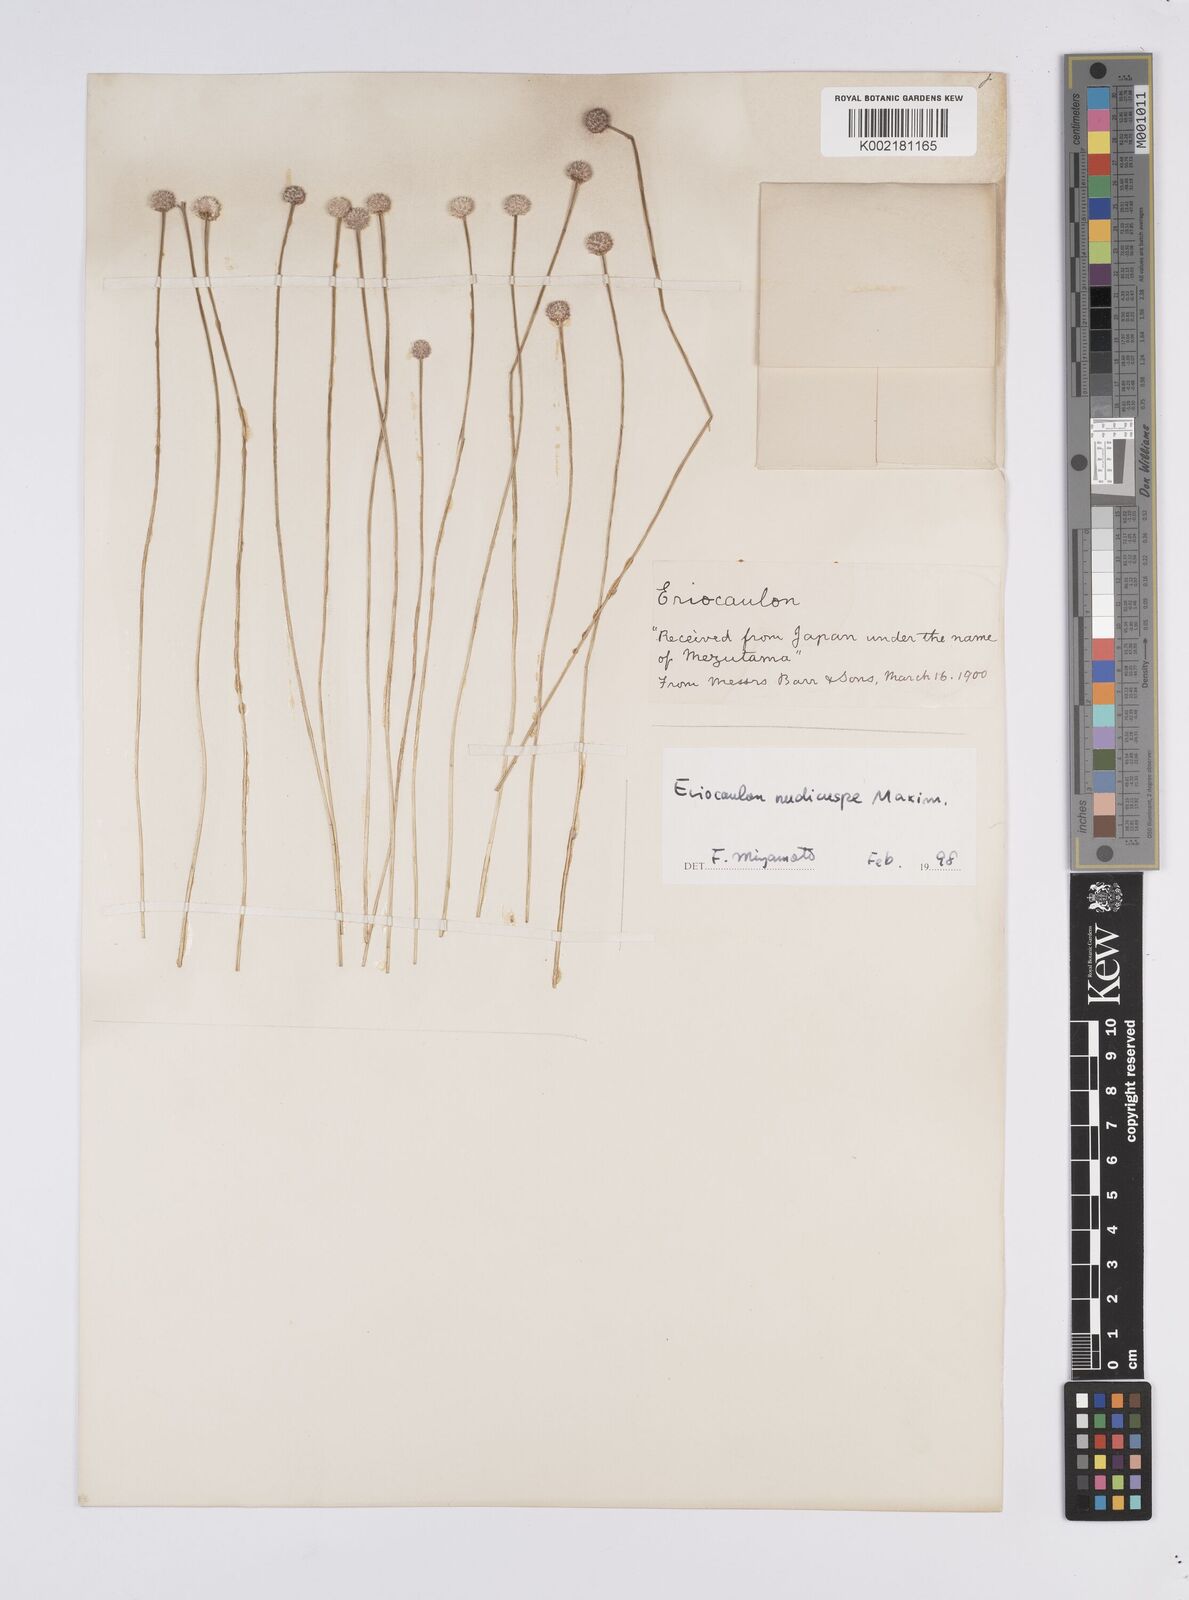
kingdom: Plantae
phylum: Tracheophyta
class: Liliopsida
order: Poales
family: Eriocaulaceae
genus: Eriocaulon
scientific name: Eriocaulon nudicuspe
